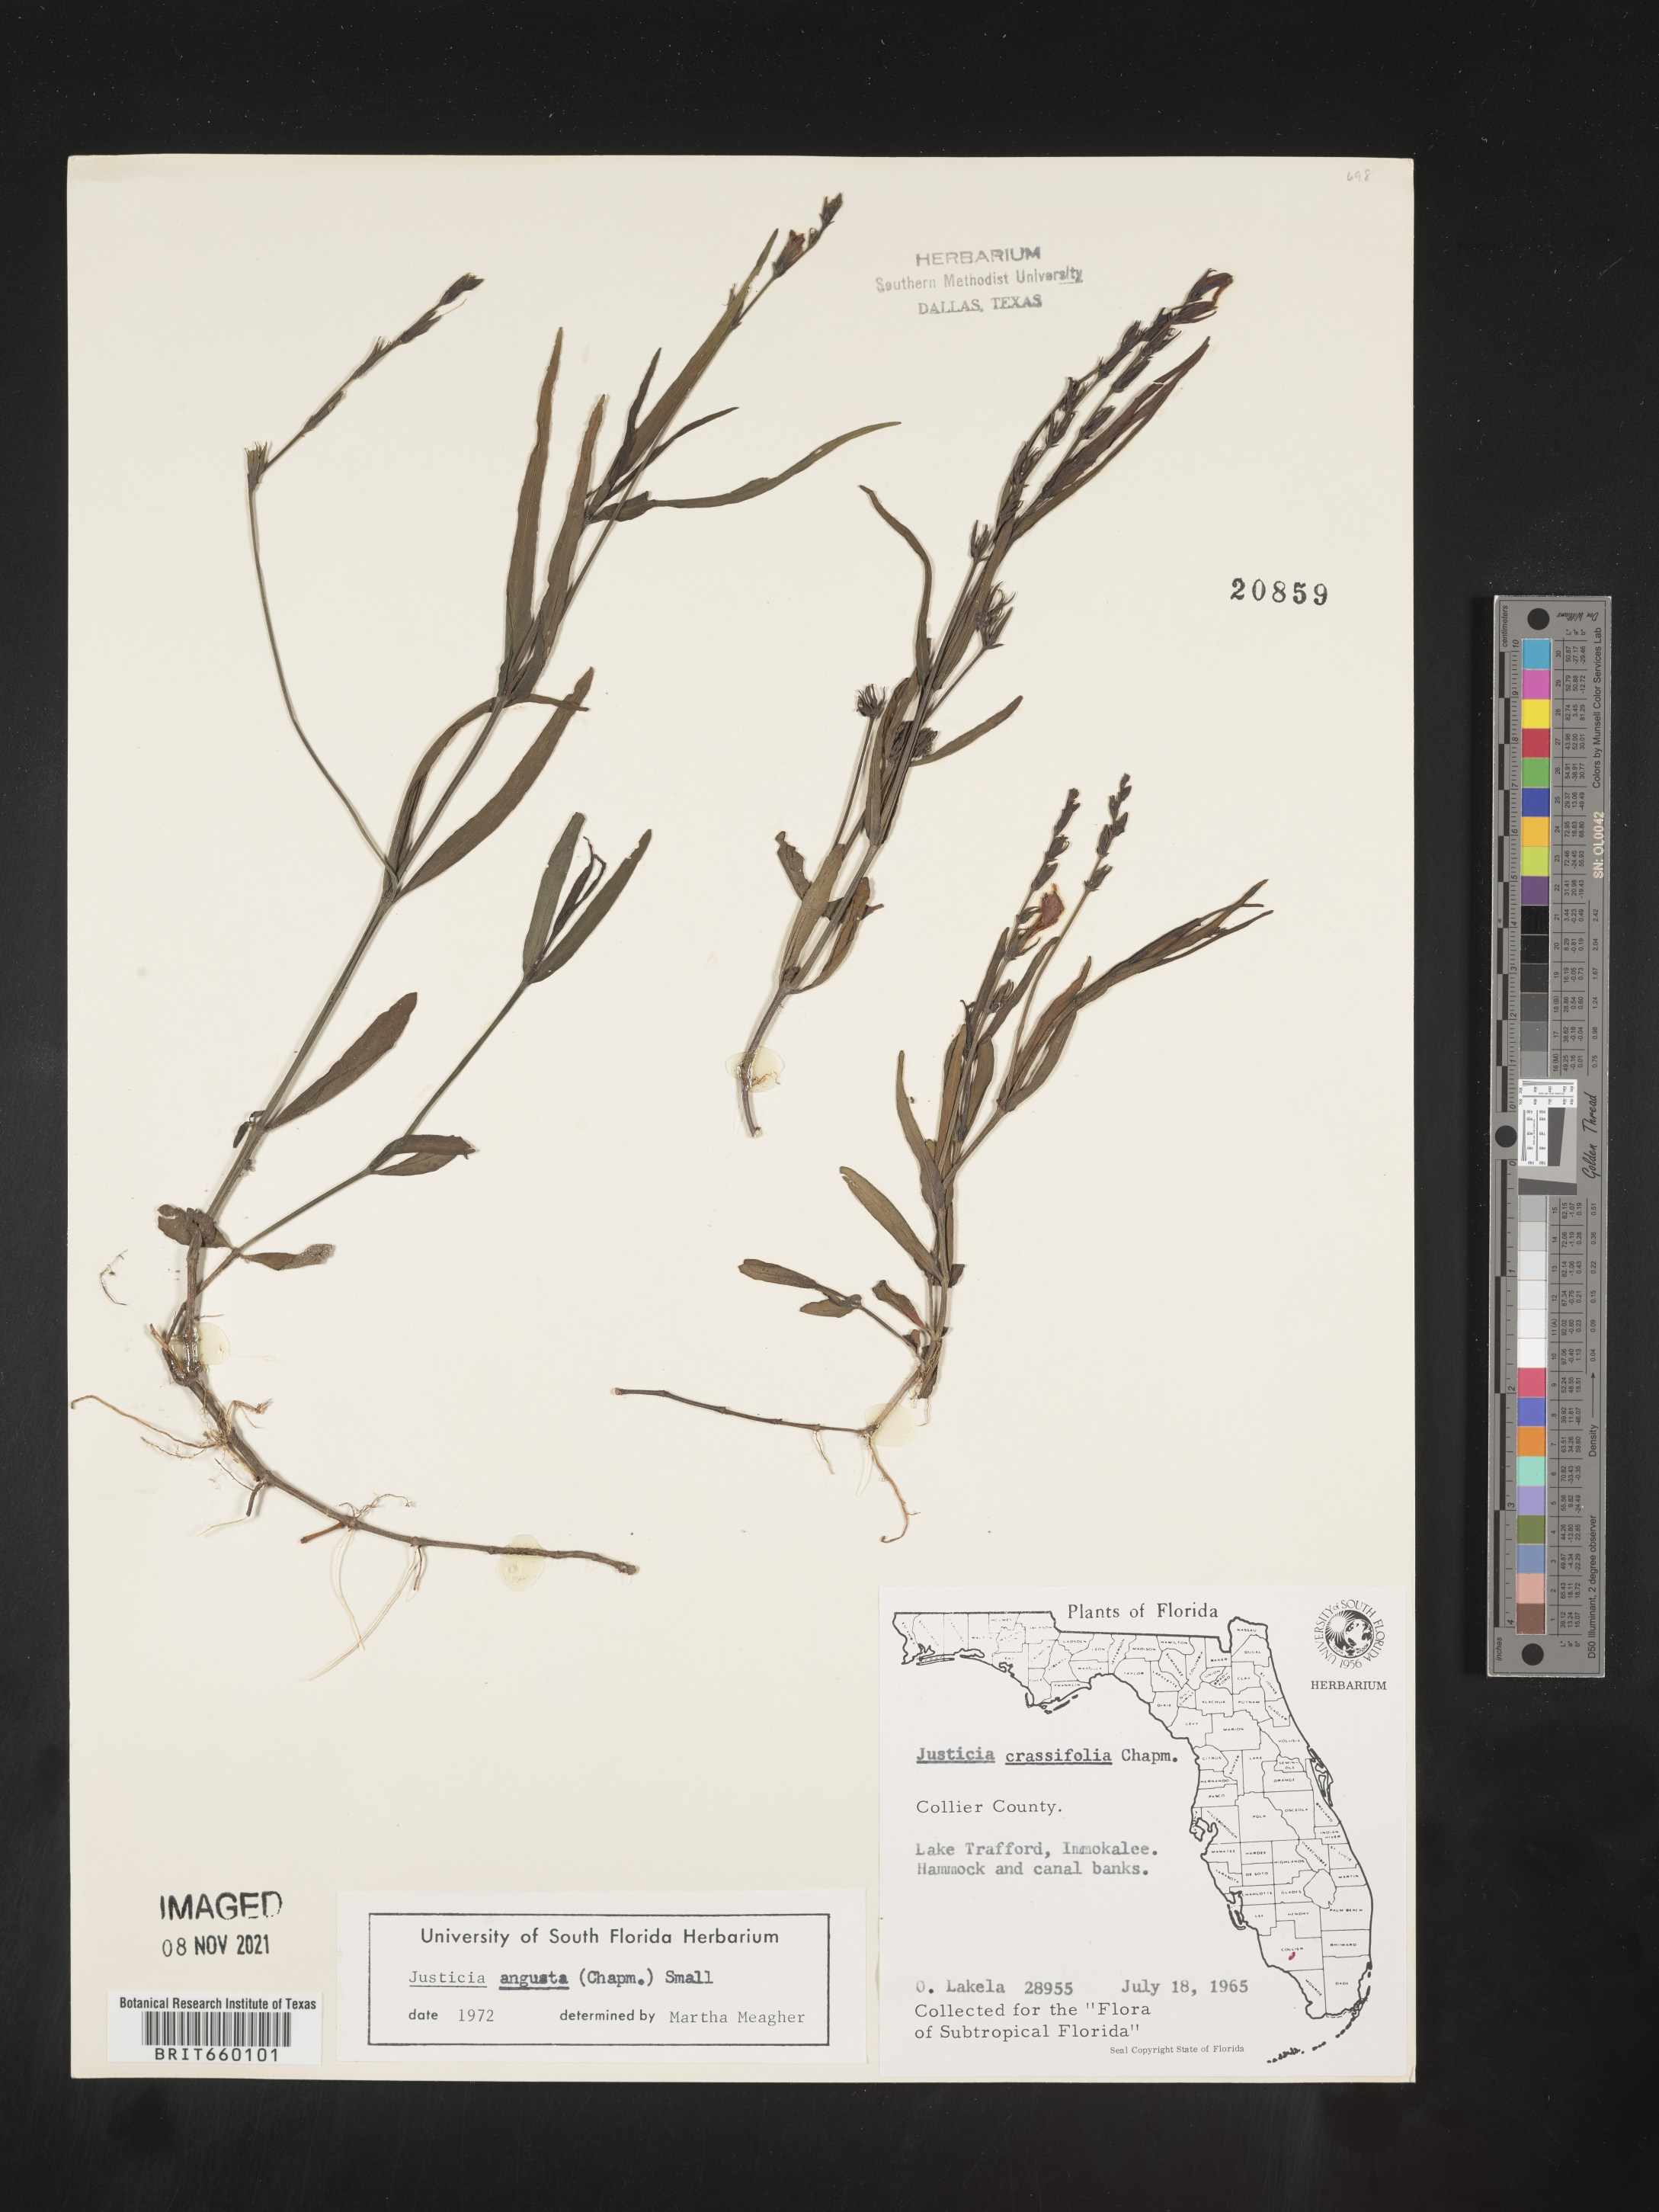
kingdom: Plantae
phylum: Tracheophyta
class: Magnoliopsida
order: Lamiales
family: Acanthaceae
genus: Justicia
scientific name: Justicia
